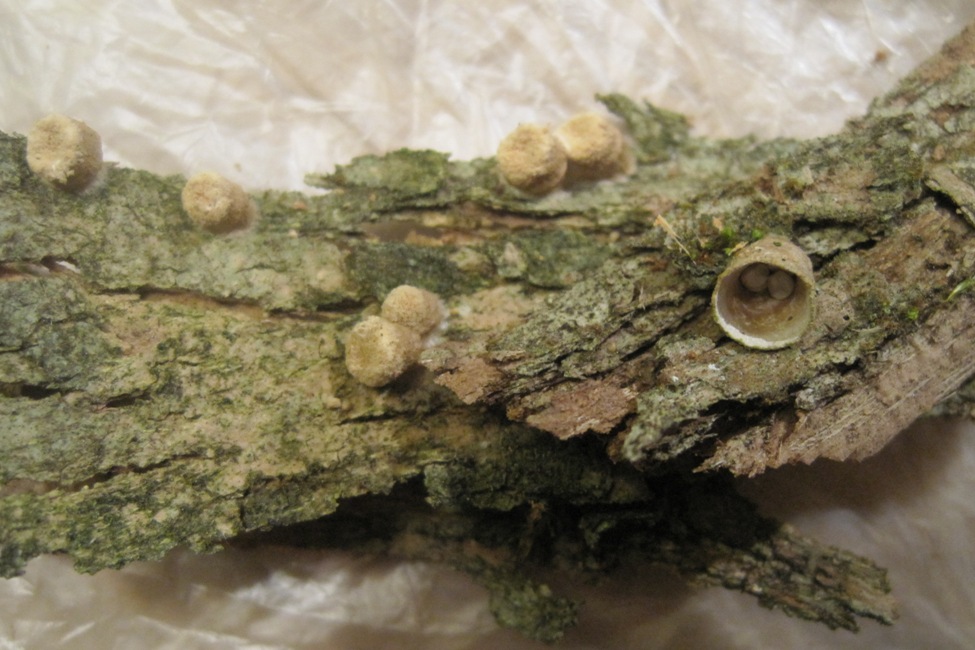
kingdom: Fungi
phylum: Basidiomycota
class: Agaricomycetes
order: Agaricales
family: Nidulariaceae
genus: Crucibulum
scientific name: Crucibulum crucibuliforme
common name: krukkesvamp
